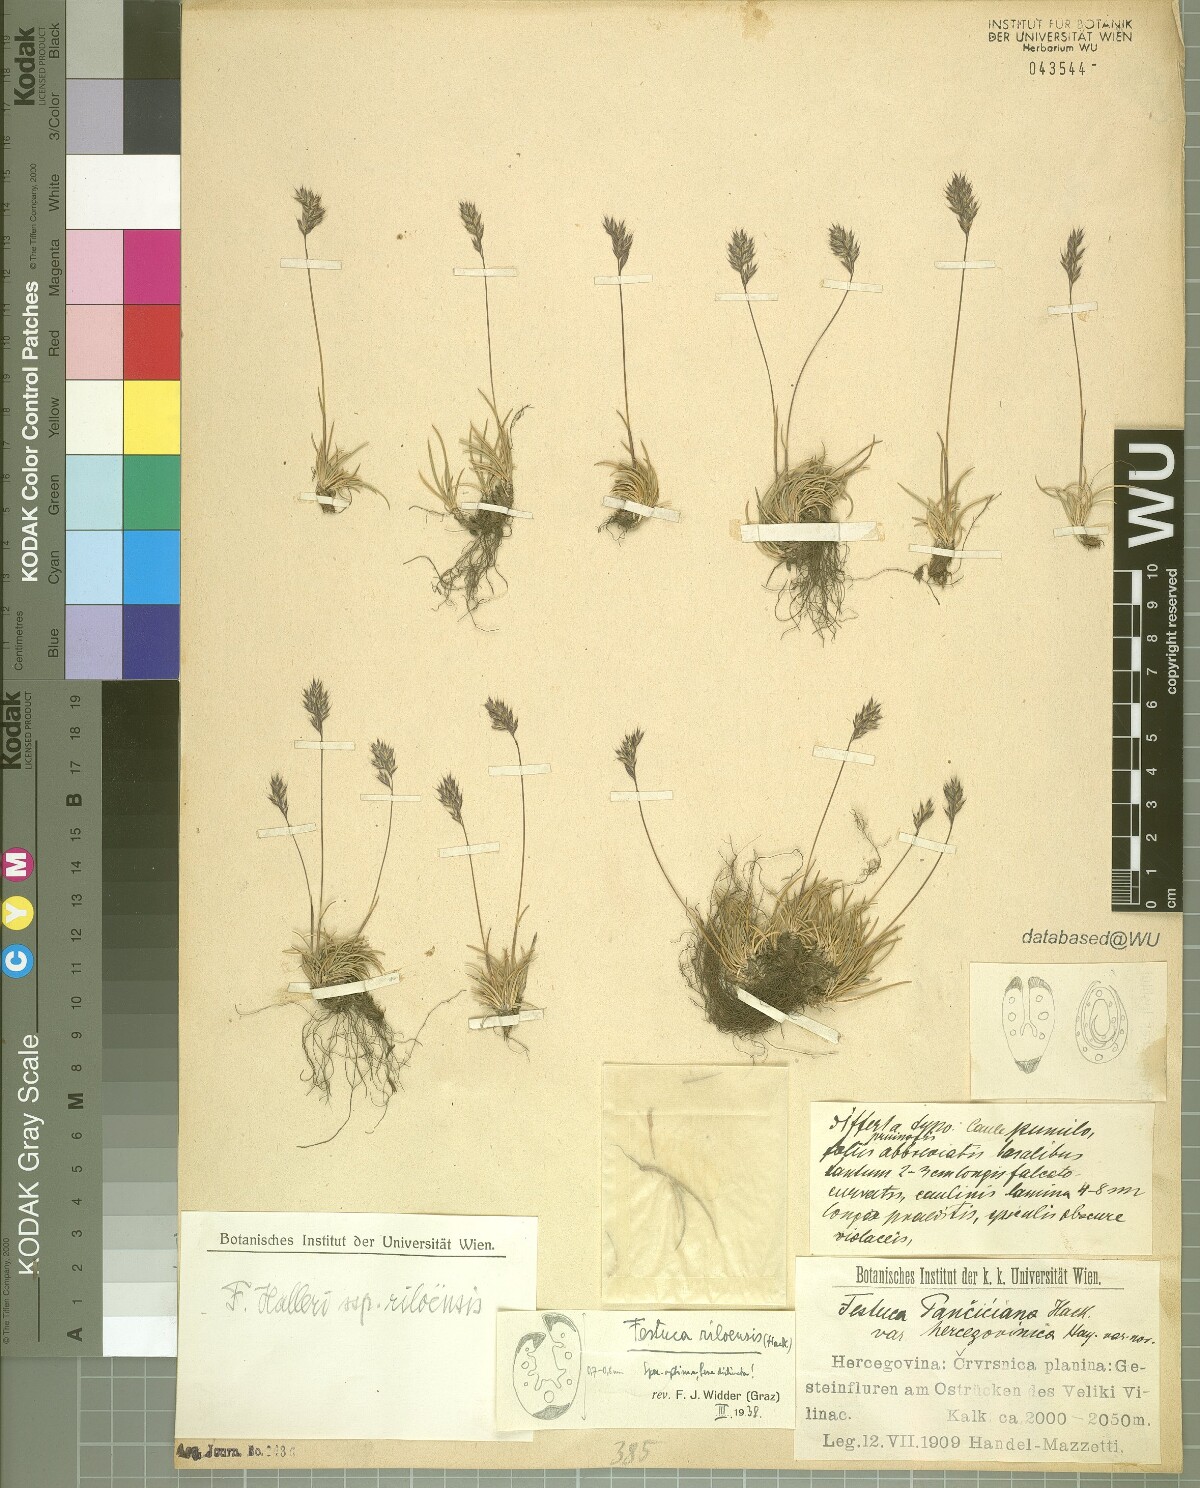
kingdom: Plantae
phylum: Tracheophyta
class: Liliopsida
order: Poales
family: Poaceae
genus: Festuca
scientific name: Festuca riloensis
